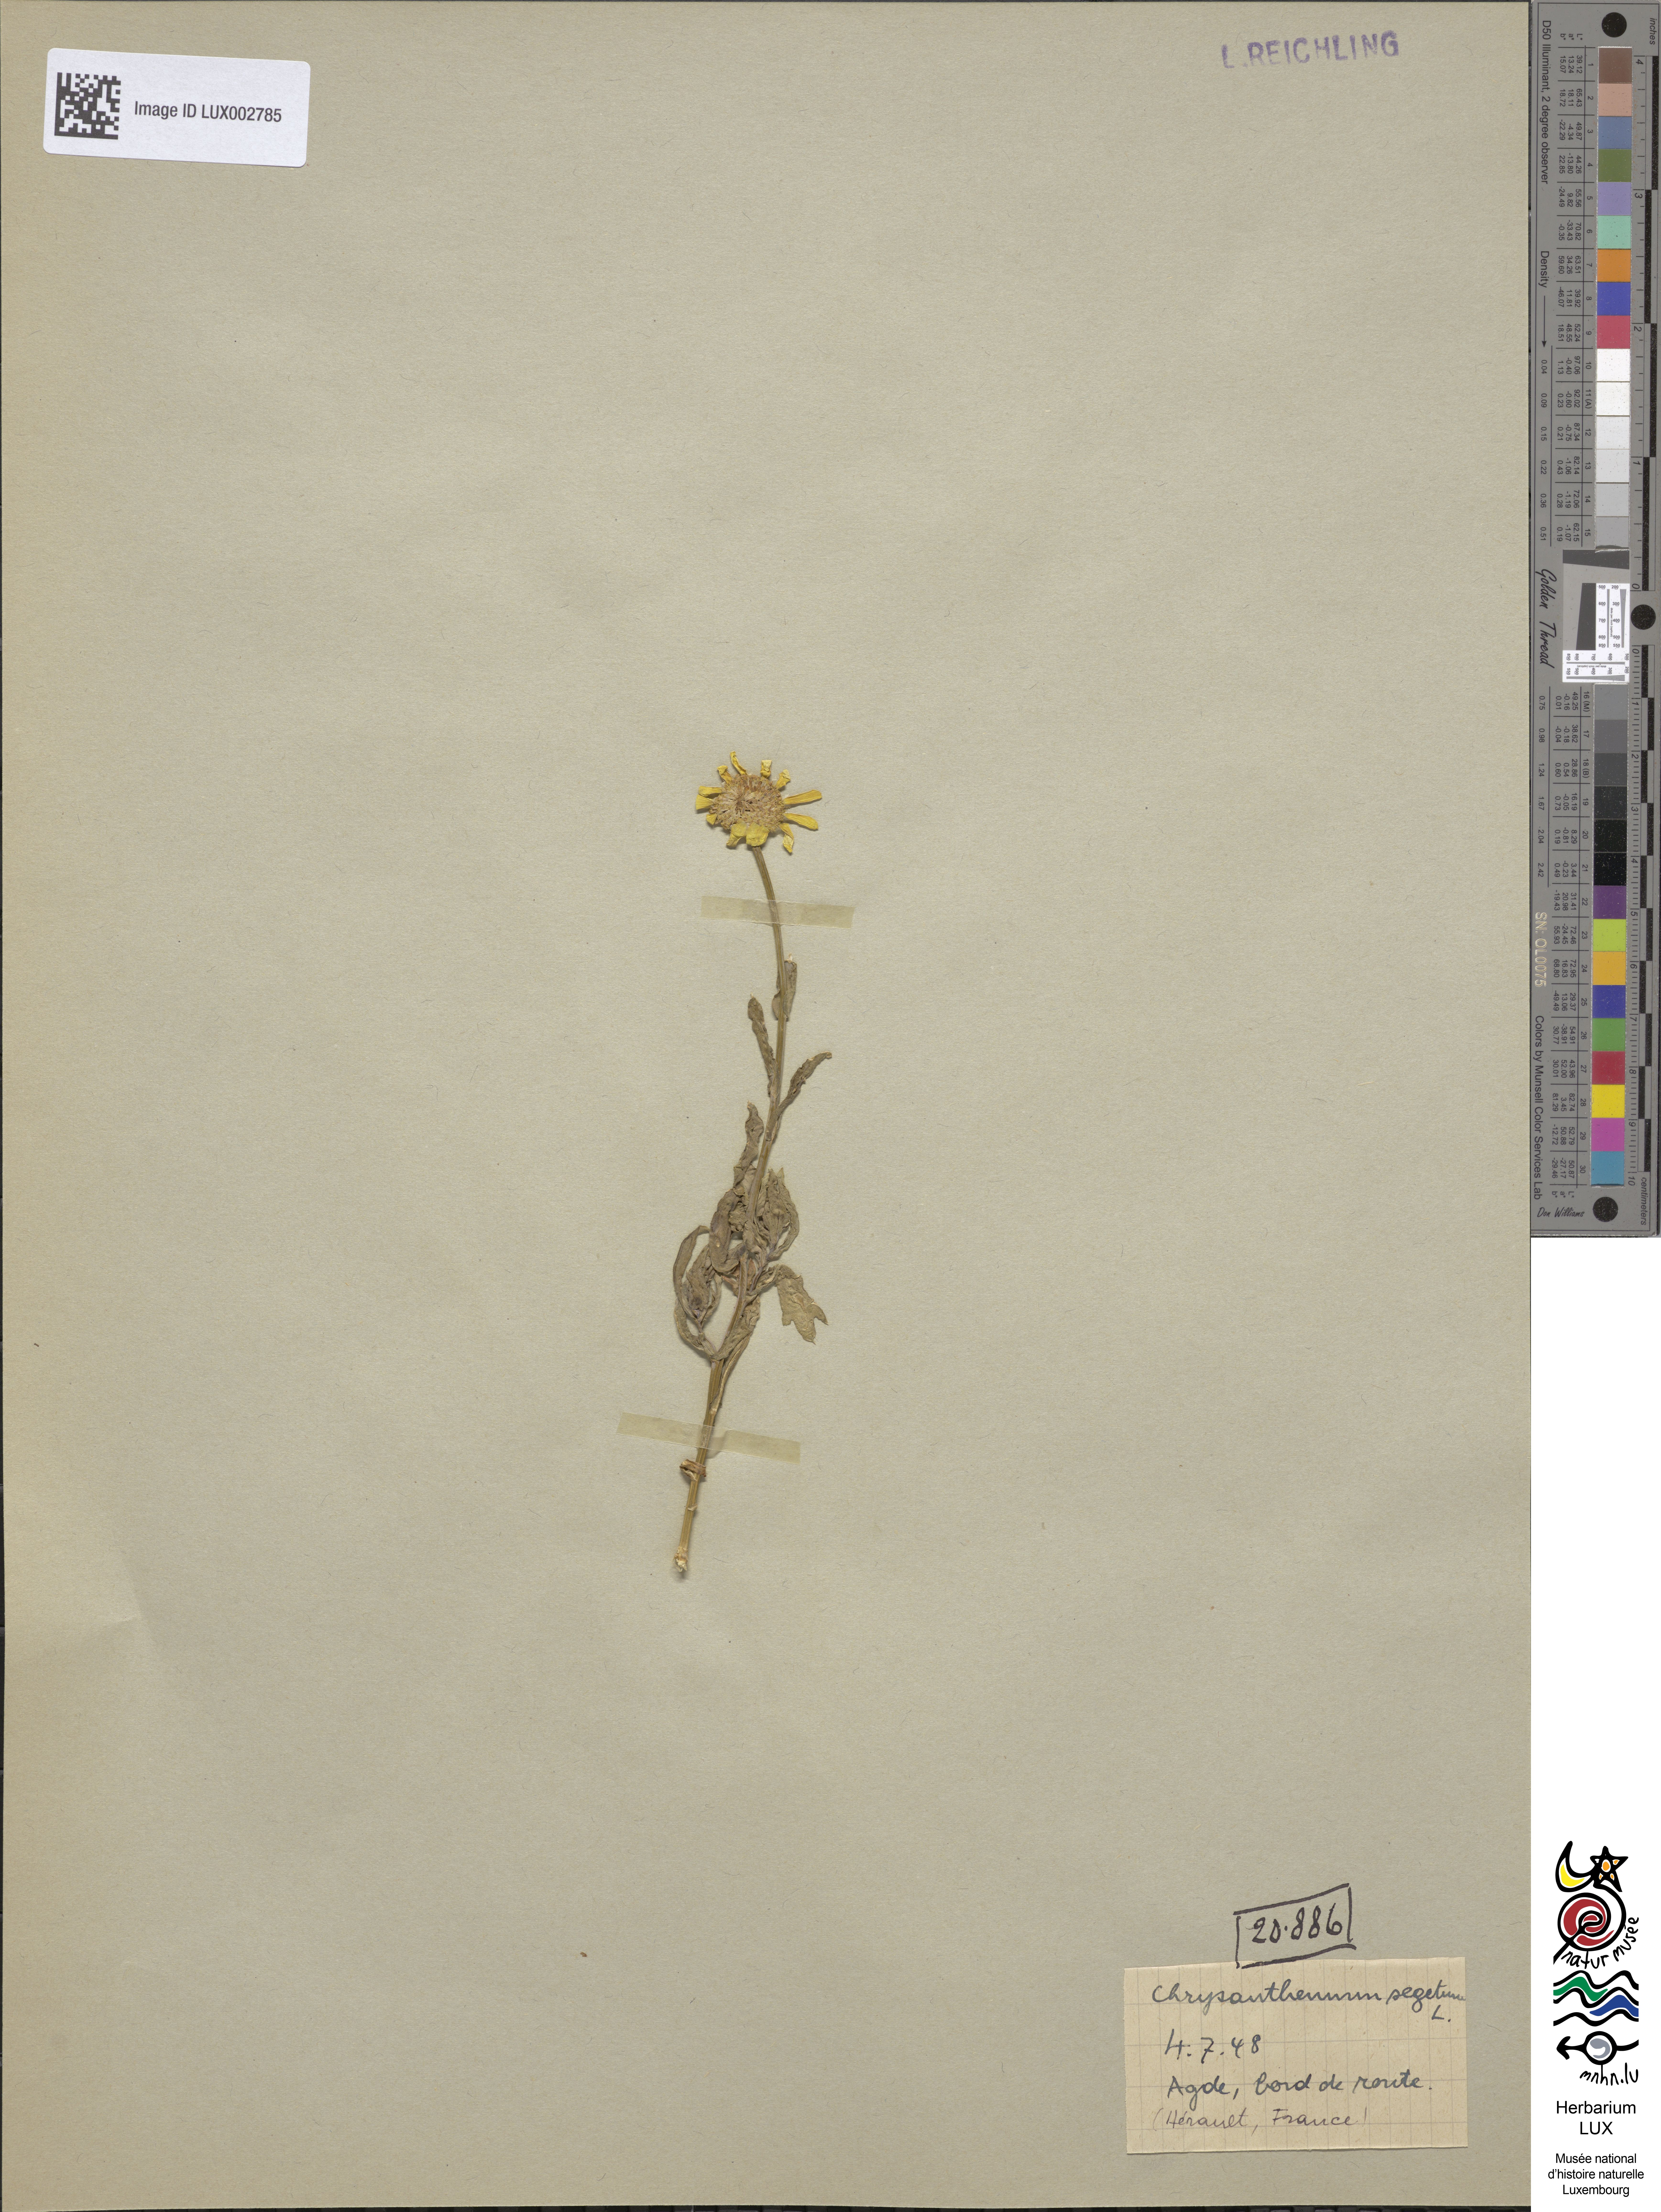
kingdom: Plantae
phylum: Tracheophyta
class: Magnoliopsida
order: Asterales
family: Asteraceae
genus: Glebionis
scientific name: Glebionis segetum
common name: Corndaisy
